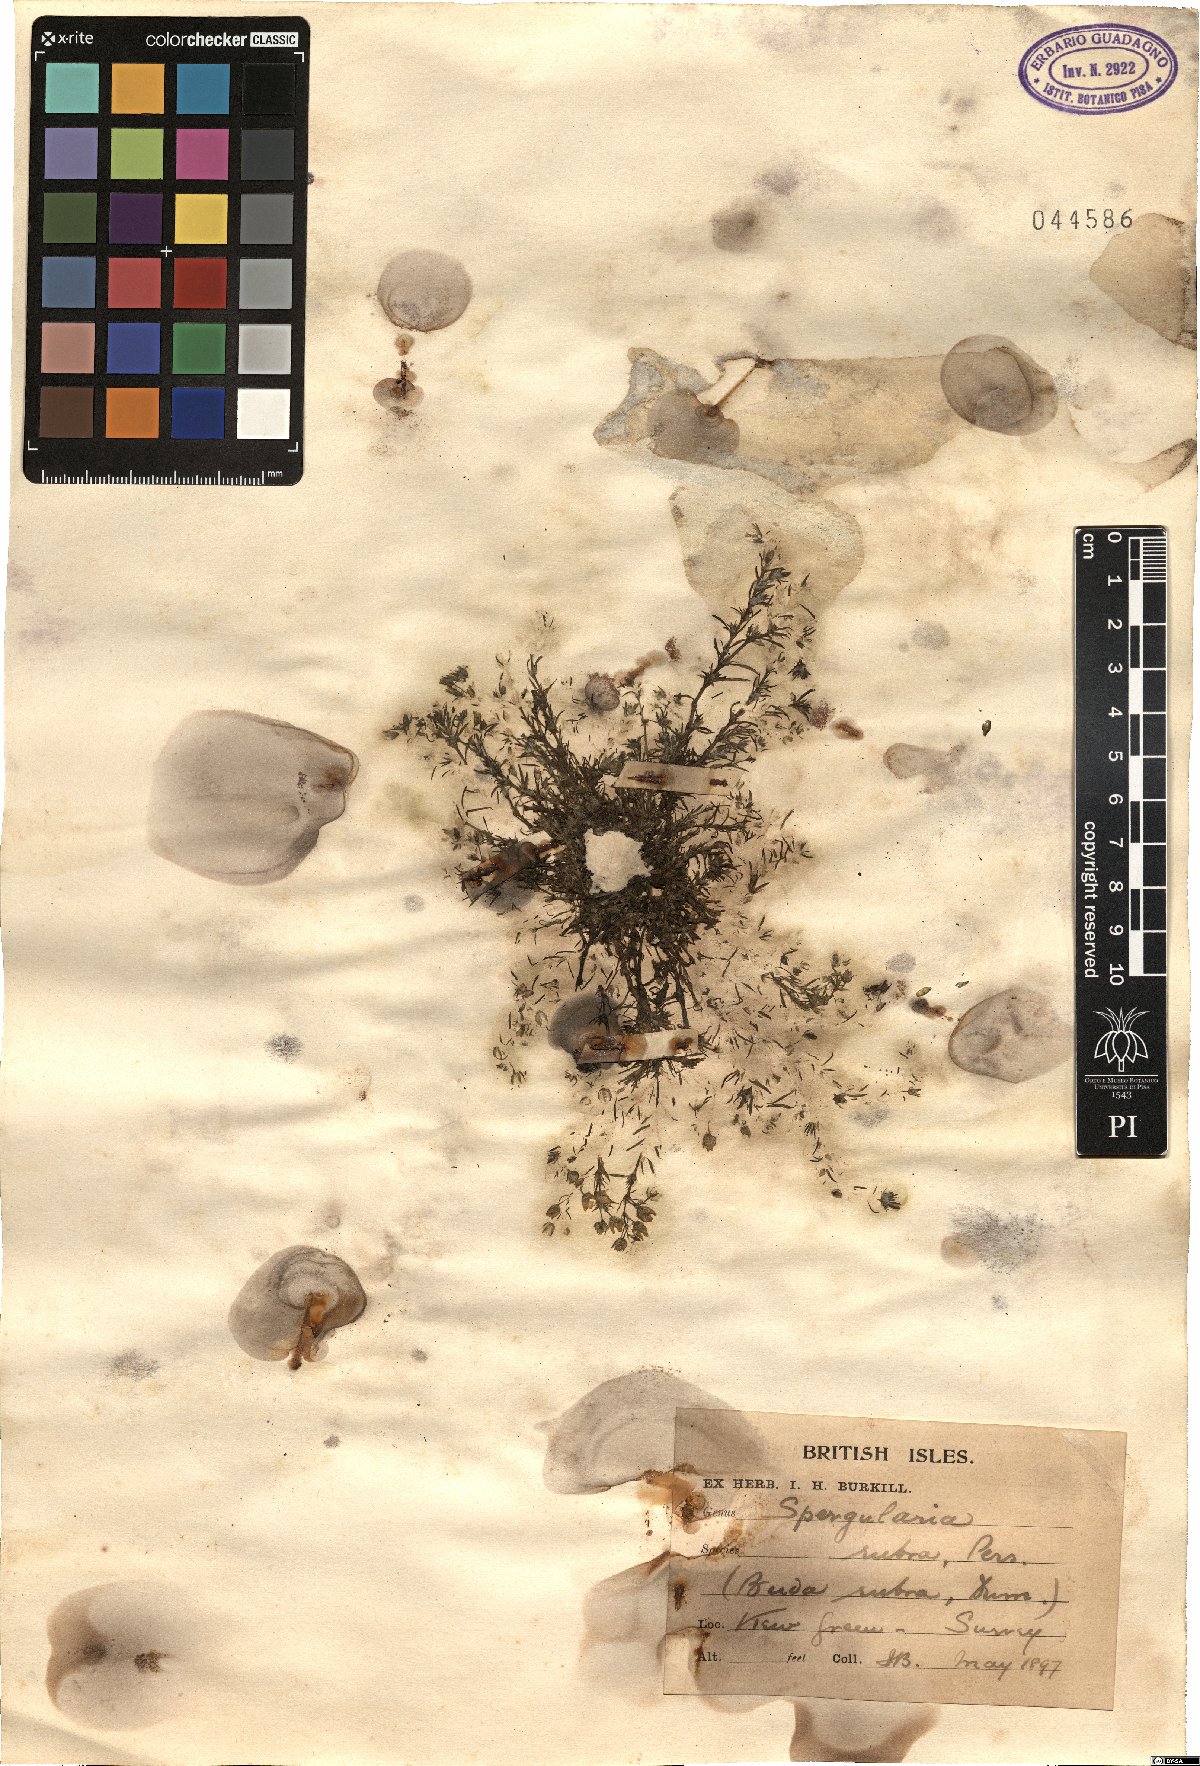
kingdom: Plantae
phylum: Tracheophyta
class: Magnoliopsida
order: Caryophyllales
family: Caryophyllaceae
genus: Spergularia
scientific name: Spergularia rubra
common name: Red sand-spurrey
